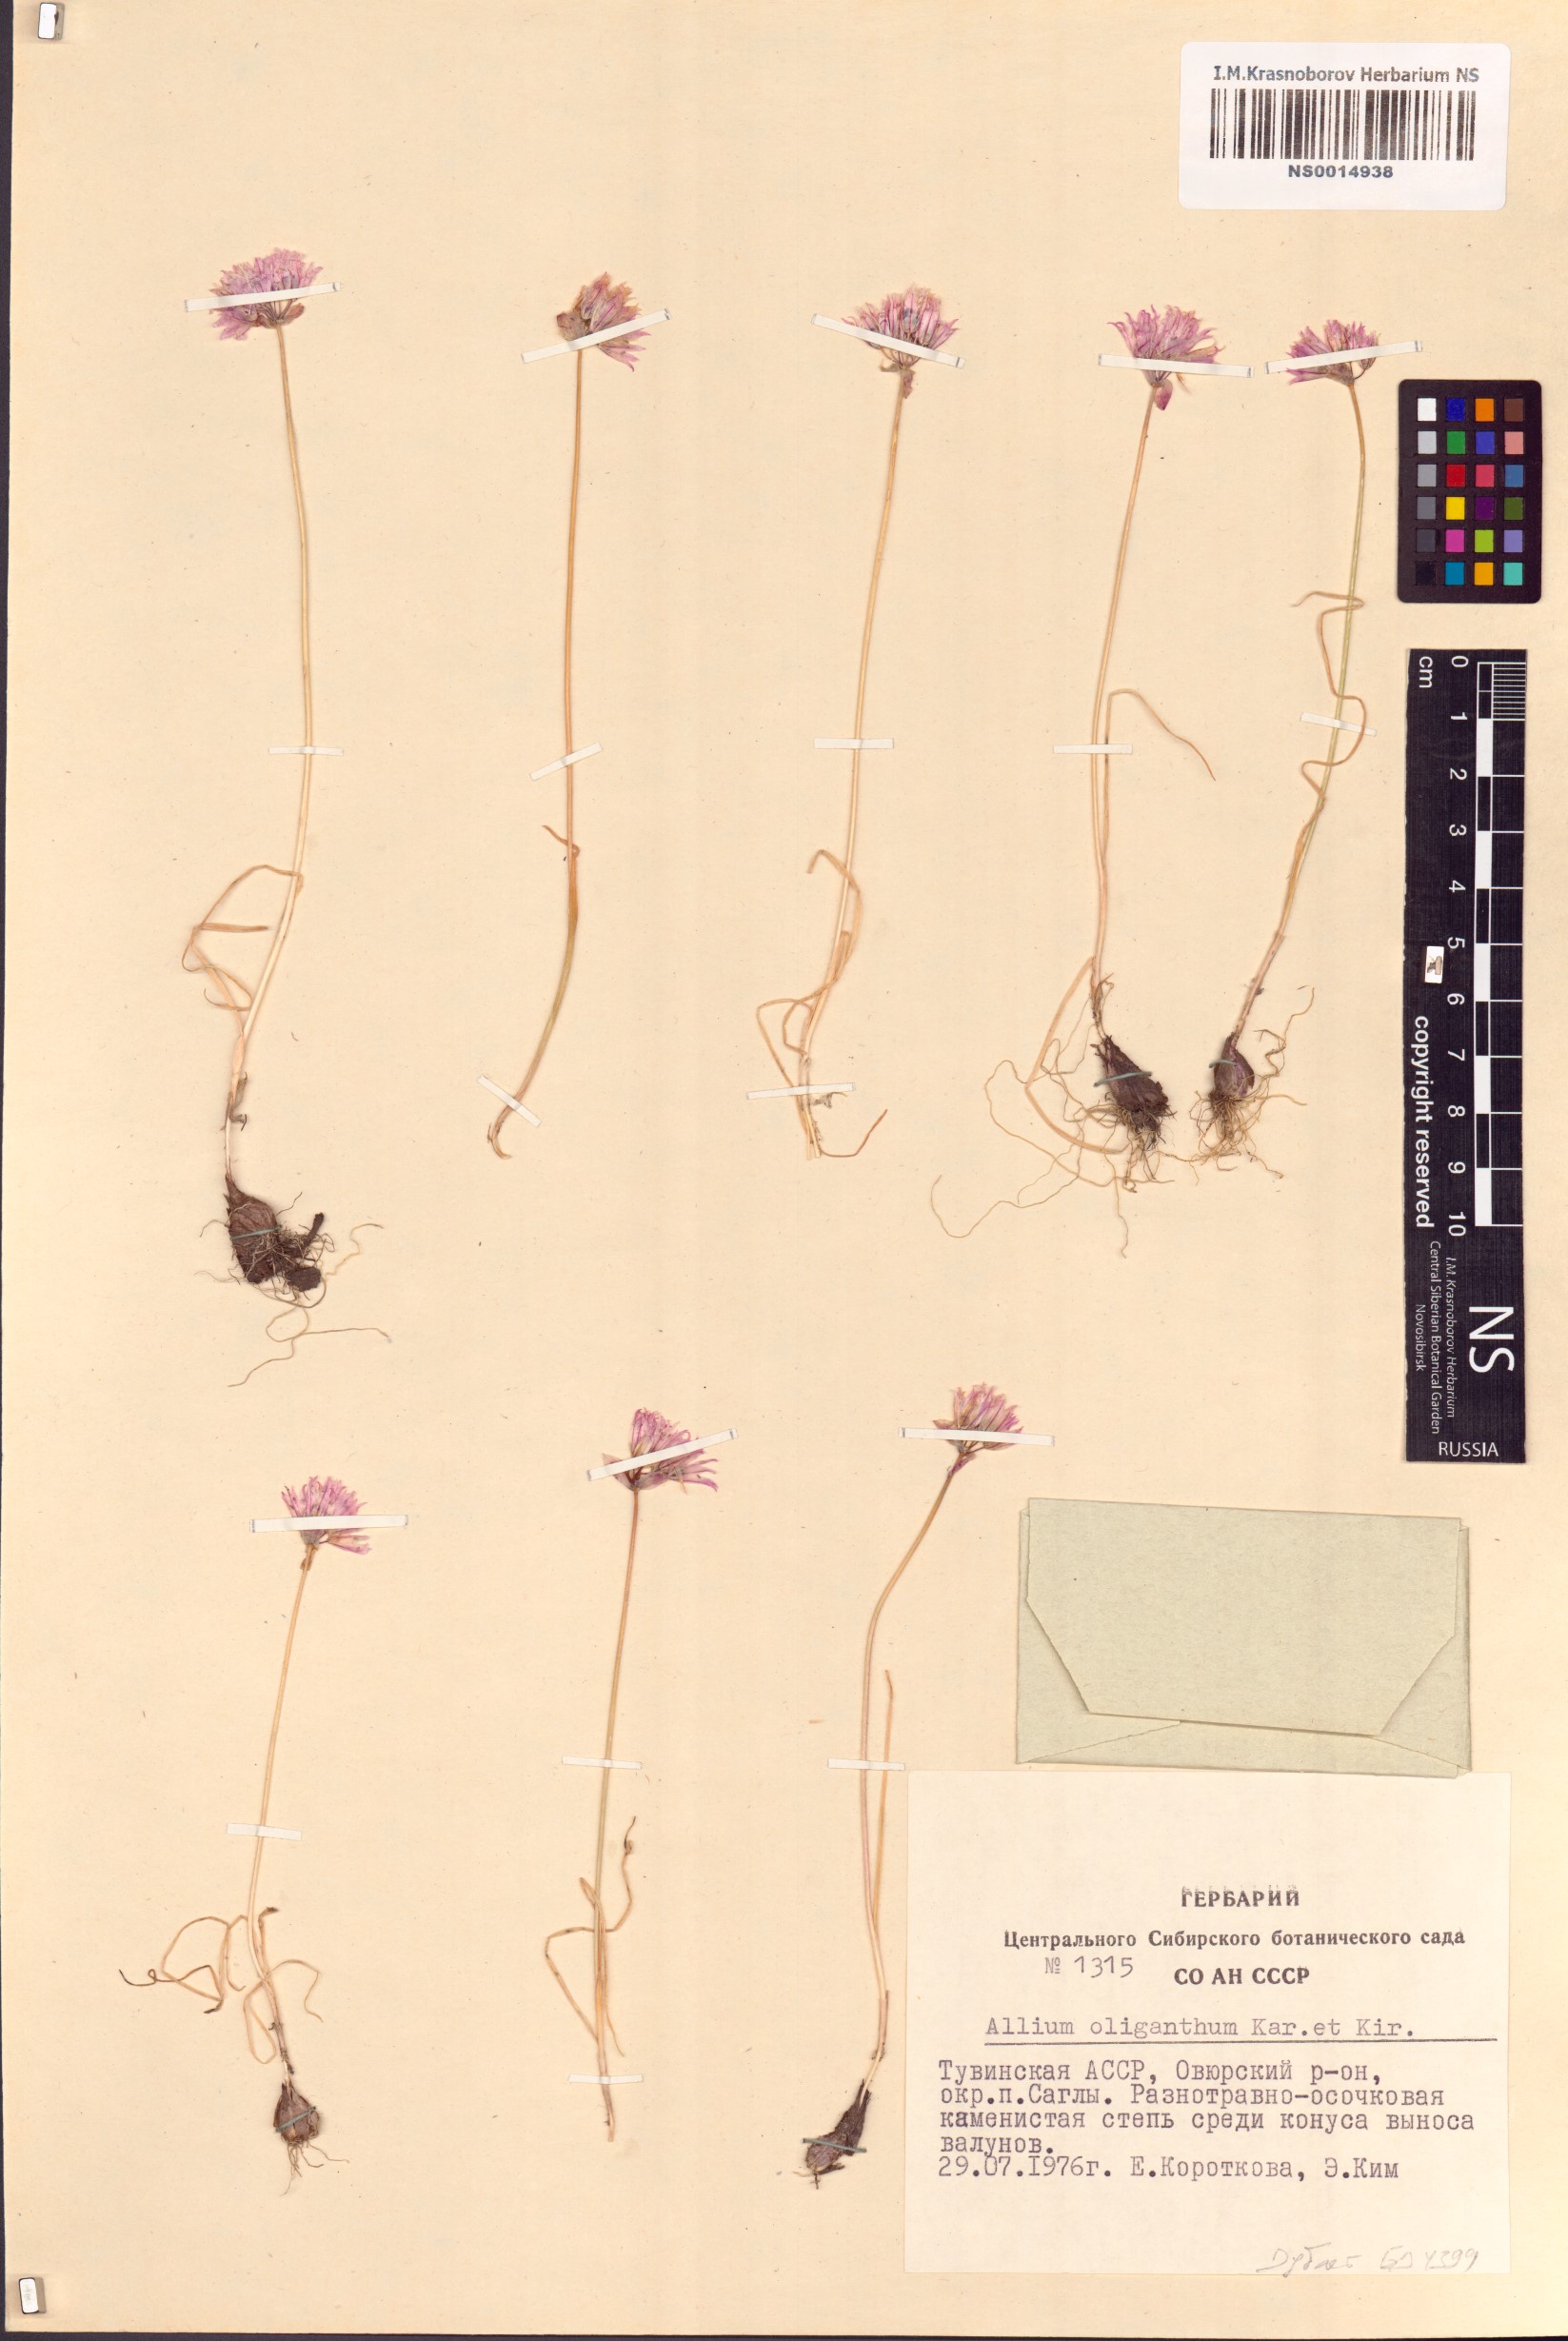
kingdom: Plantae
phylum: Tracheophyta
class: Liliopsida
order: Asparagales
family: Amaryllidaceae
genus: Allium
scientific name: Allium oliganthum
